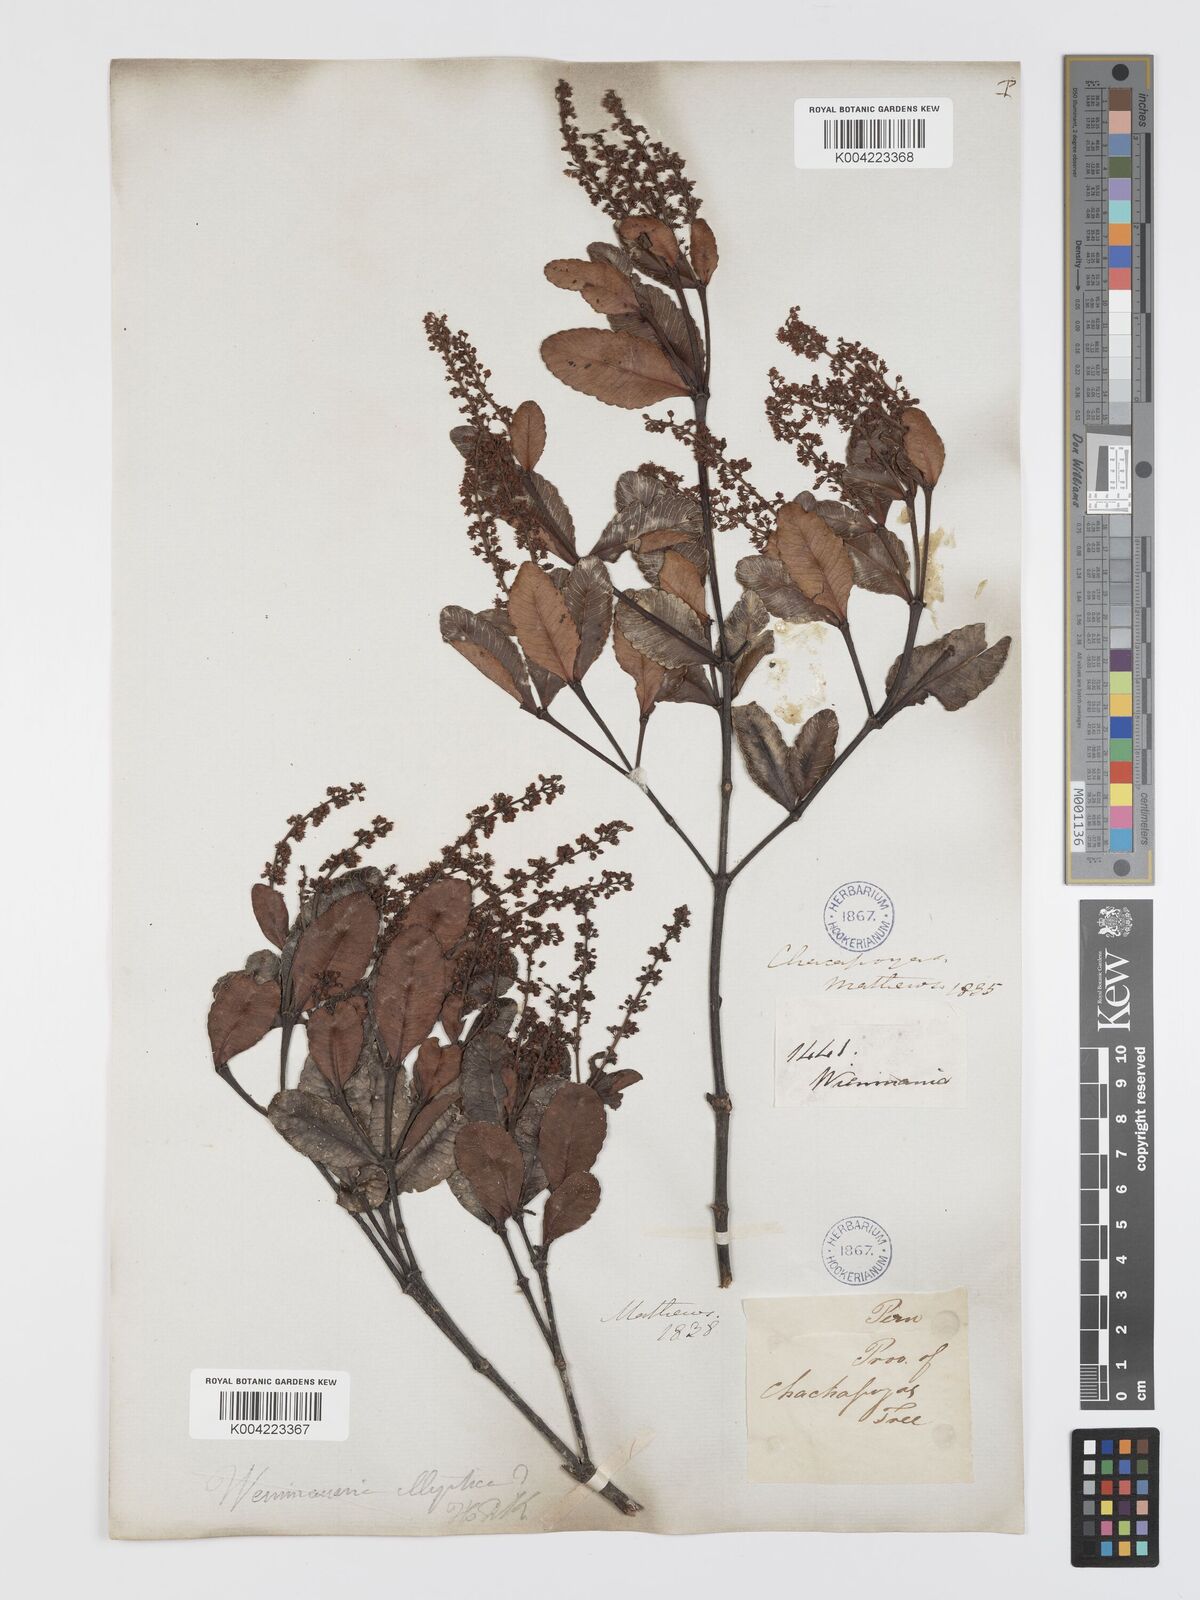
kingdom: Plantae
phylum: Tracheophyta
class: Magnoliopsida
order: Oxalidales
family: Cunoniaceae
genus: Weinmannia
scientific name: Weinmannia elliptica
